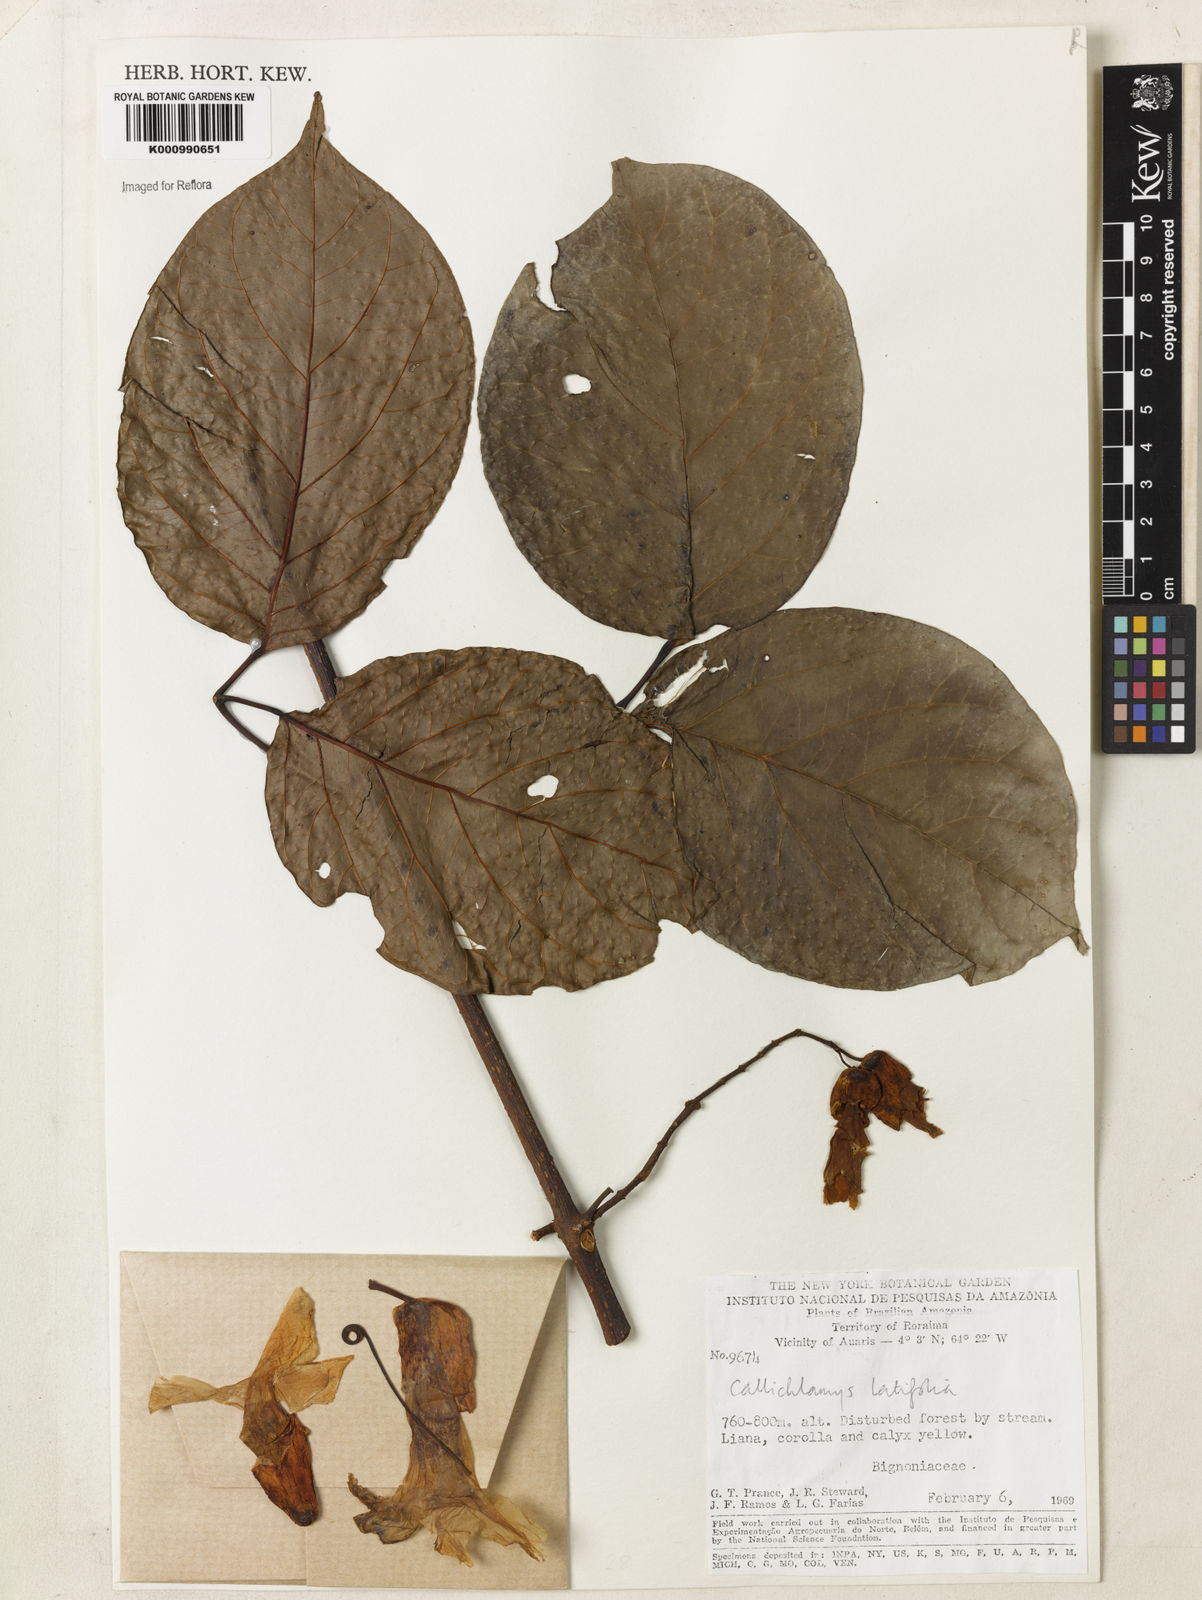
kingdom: Plantae
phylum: Tracheophyta
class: Magnoliopsida
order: Lamiales
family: Bignoniaceae
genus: Callichlamys
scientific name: Callichlamys latifolia
